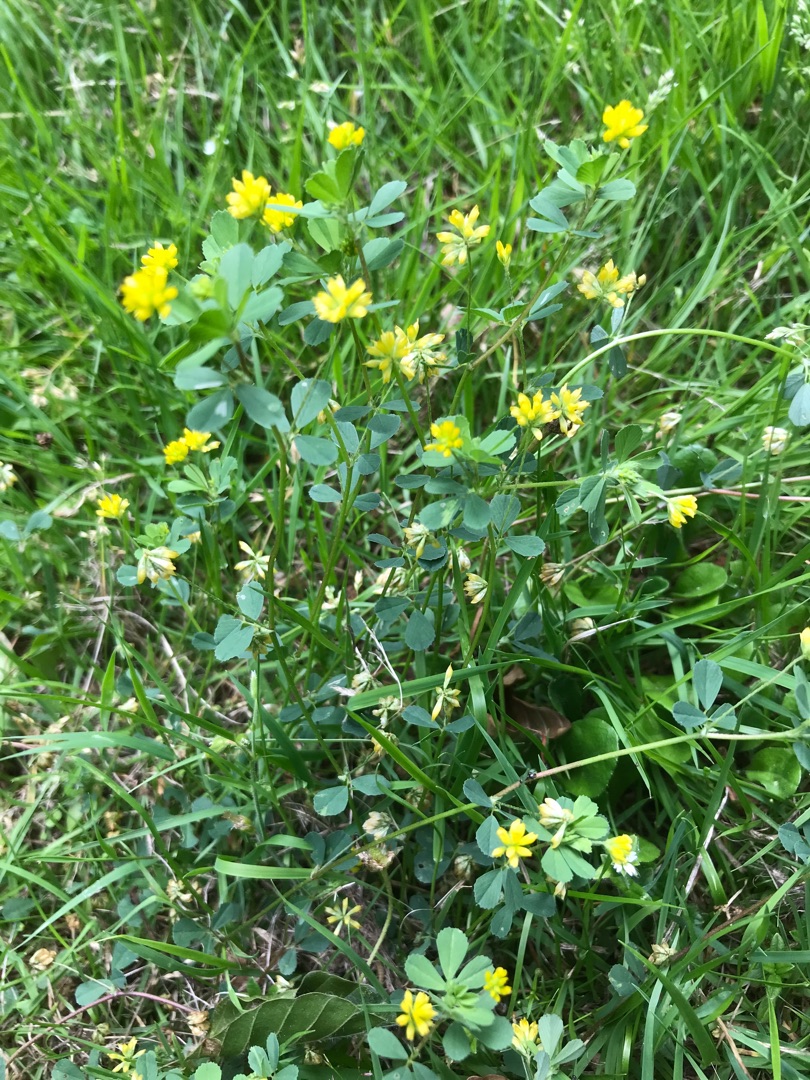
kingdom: Plantae
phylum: Tracheophyta
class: Magnoliopsida
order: Fabales
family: Fabaceae
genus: Trifolium
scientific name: Trifolium dubium
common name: Fin kløver
